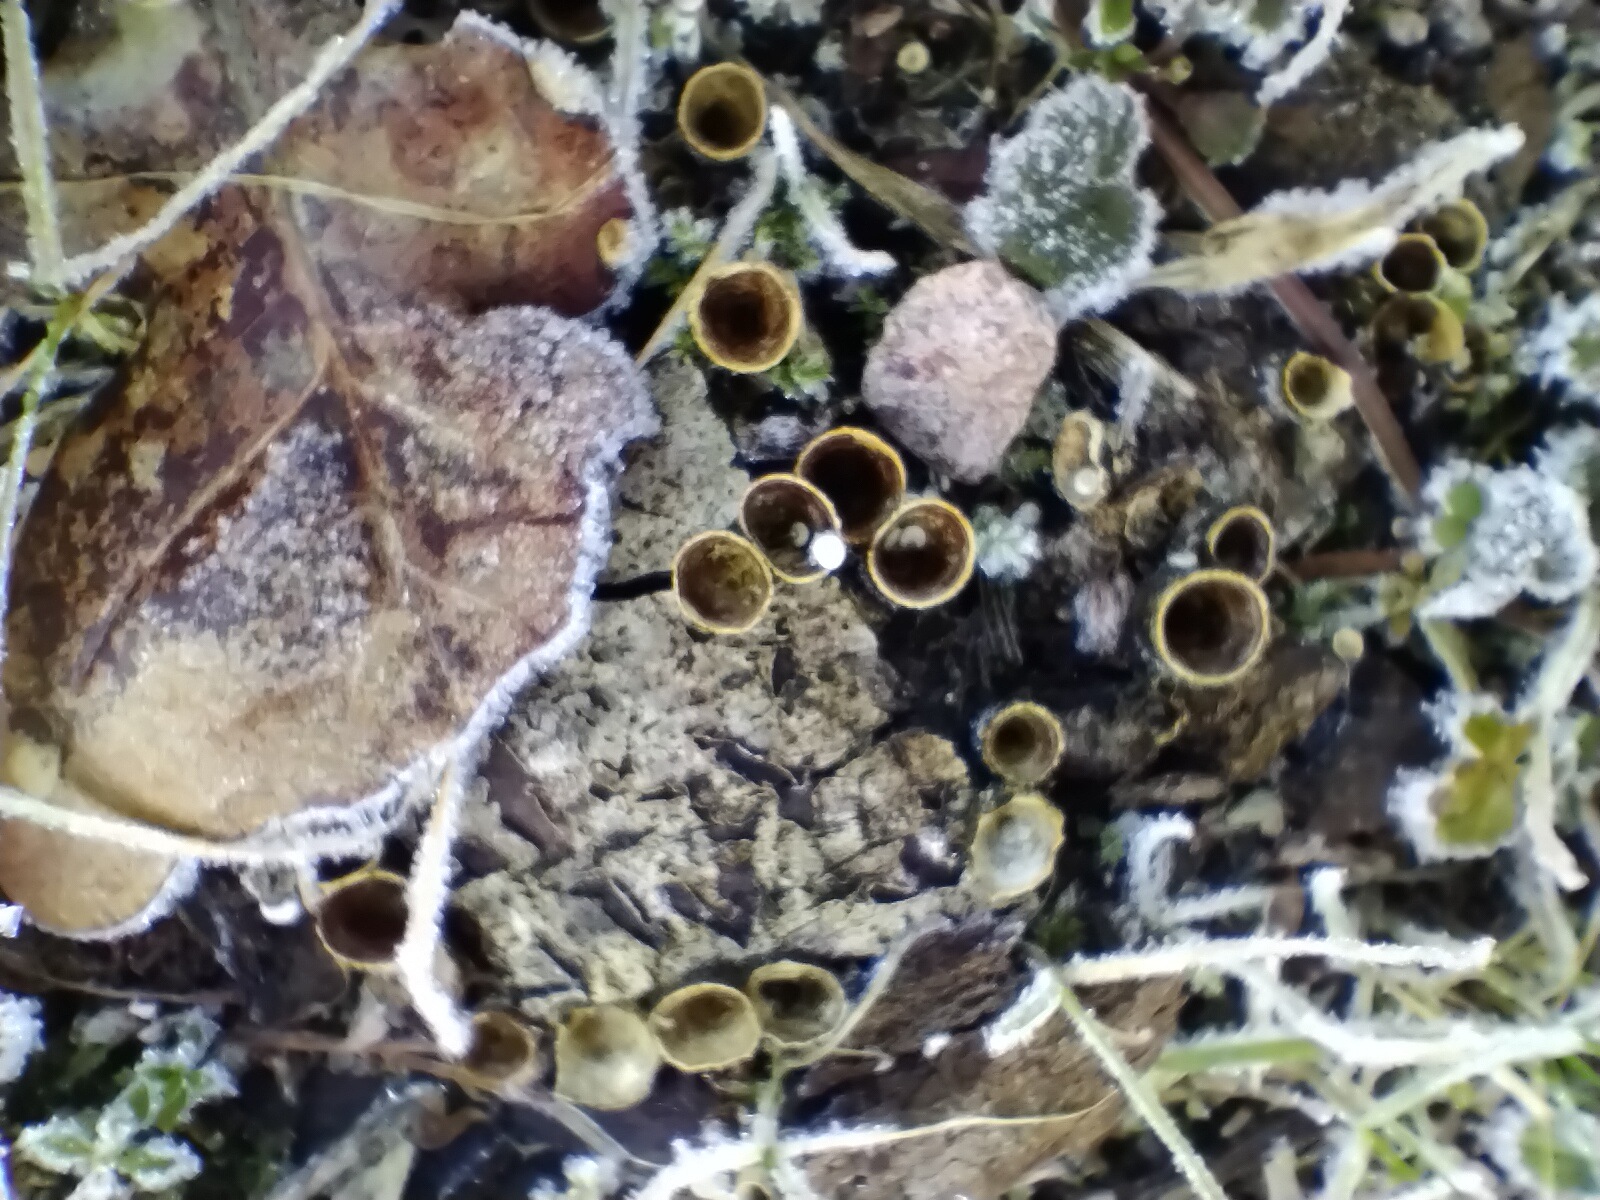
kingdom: Fungi
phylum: Basidiomycota
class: Agaricomycetes
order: Agaricales
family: Nidulariaceae
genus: Crucibulum
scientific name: Crucibulum crucibuliforme
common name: krukkesvamp
